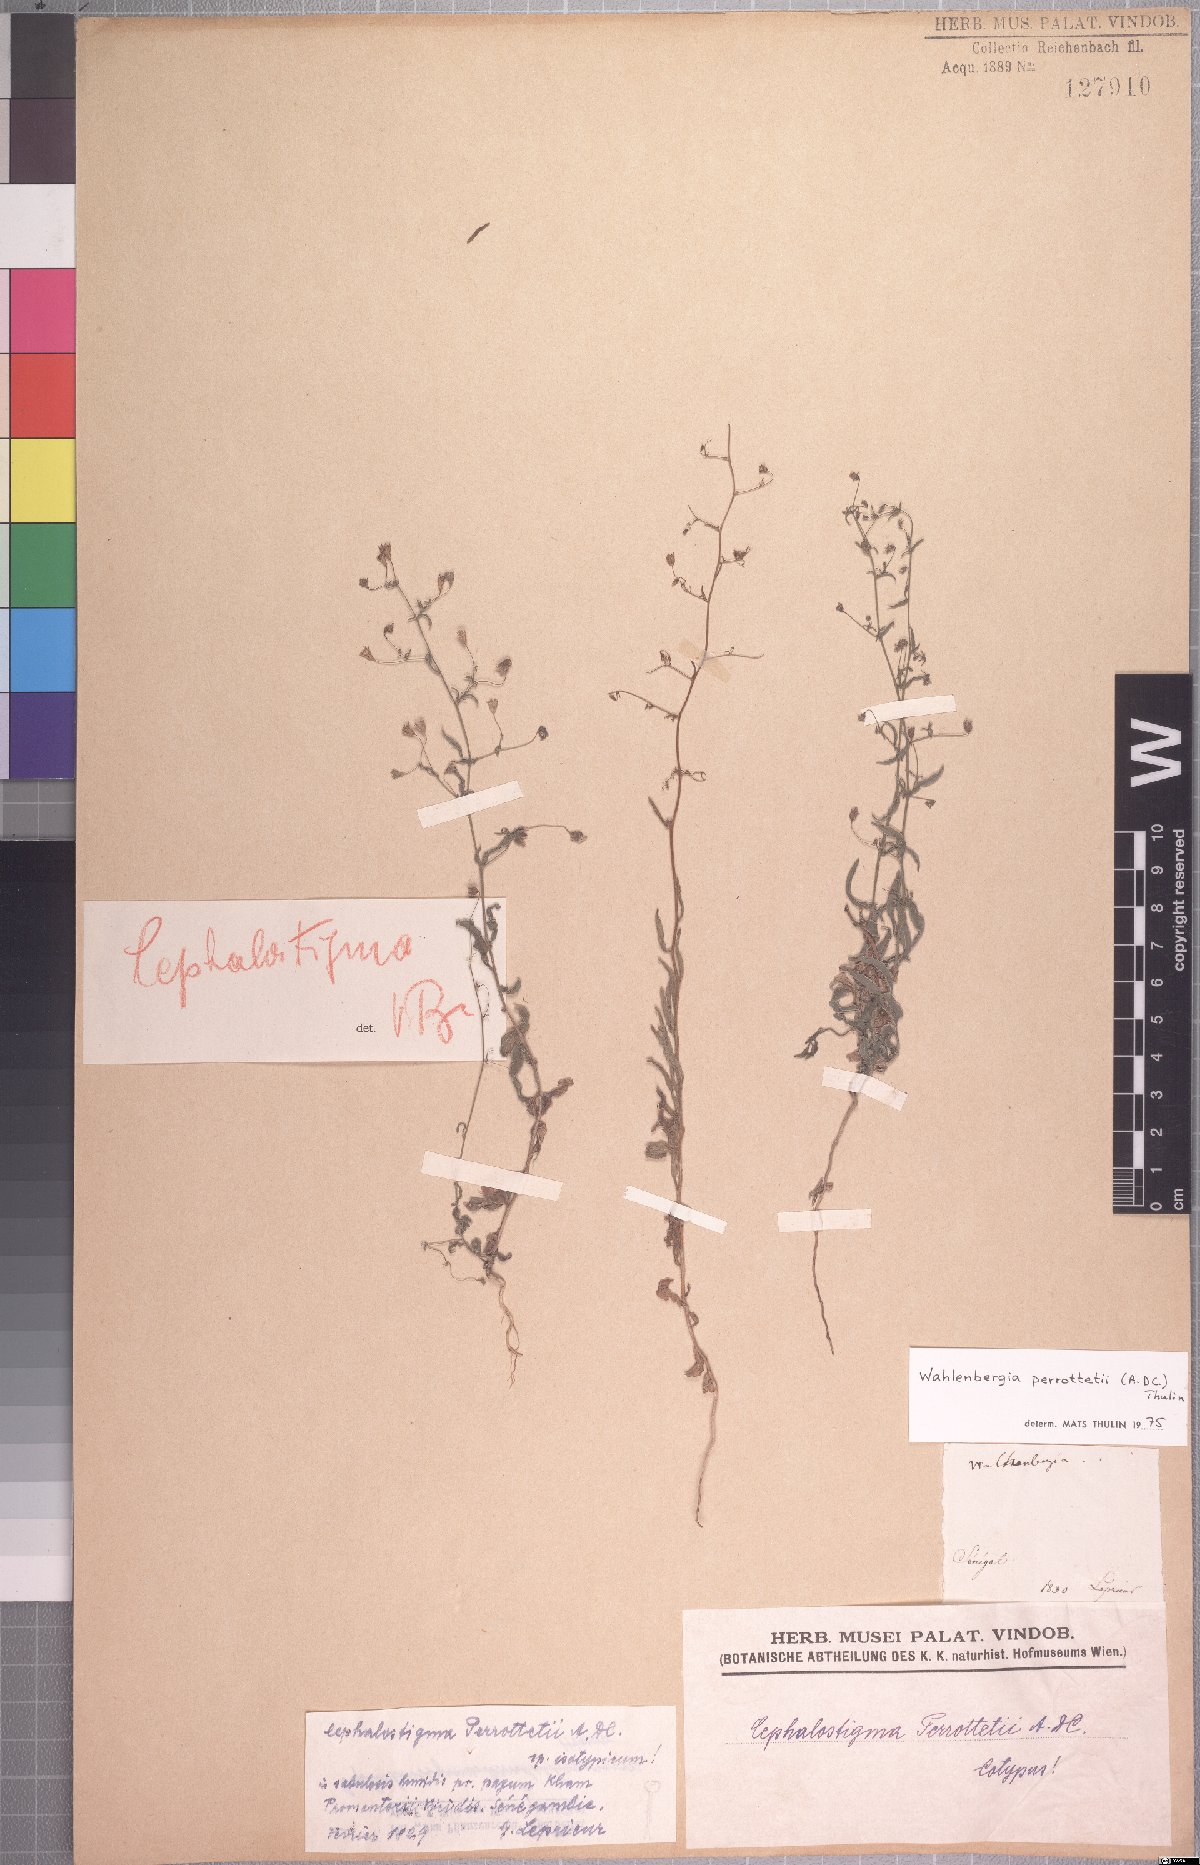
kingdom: Plantae
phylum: Tracheophyta
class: Magnoliopsida
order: Asterales
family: Campanulaceae
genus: Wahlenbergia
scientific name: Wahlenbergia perrottetii
